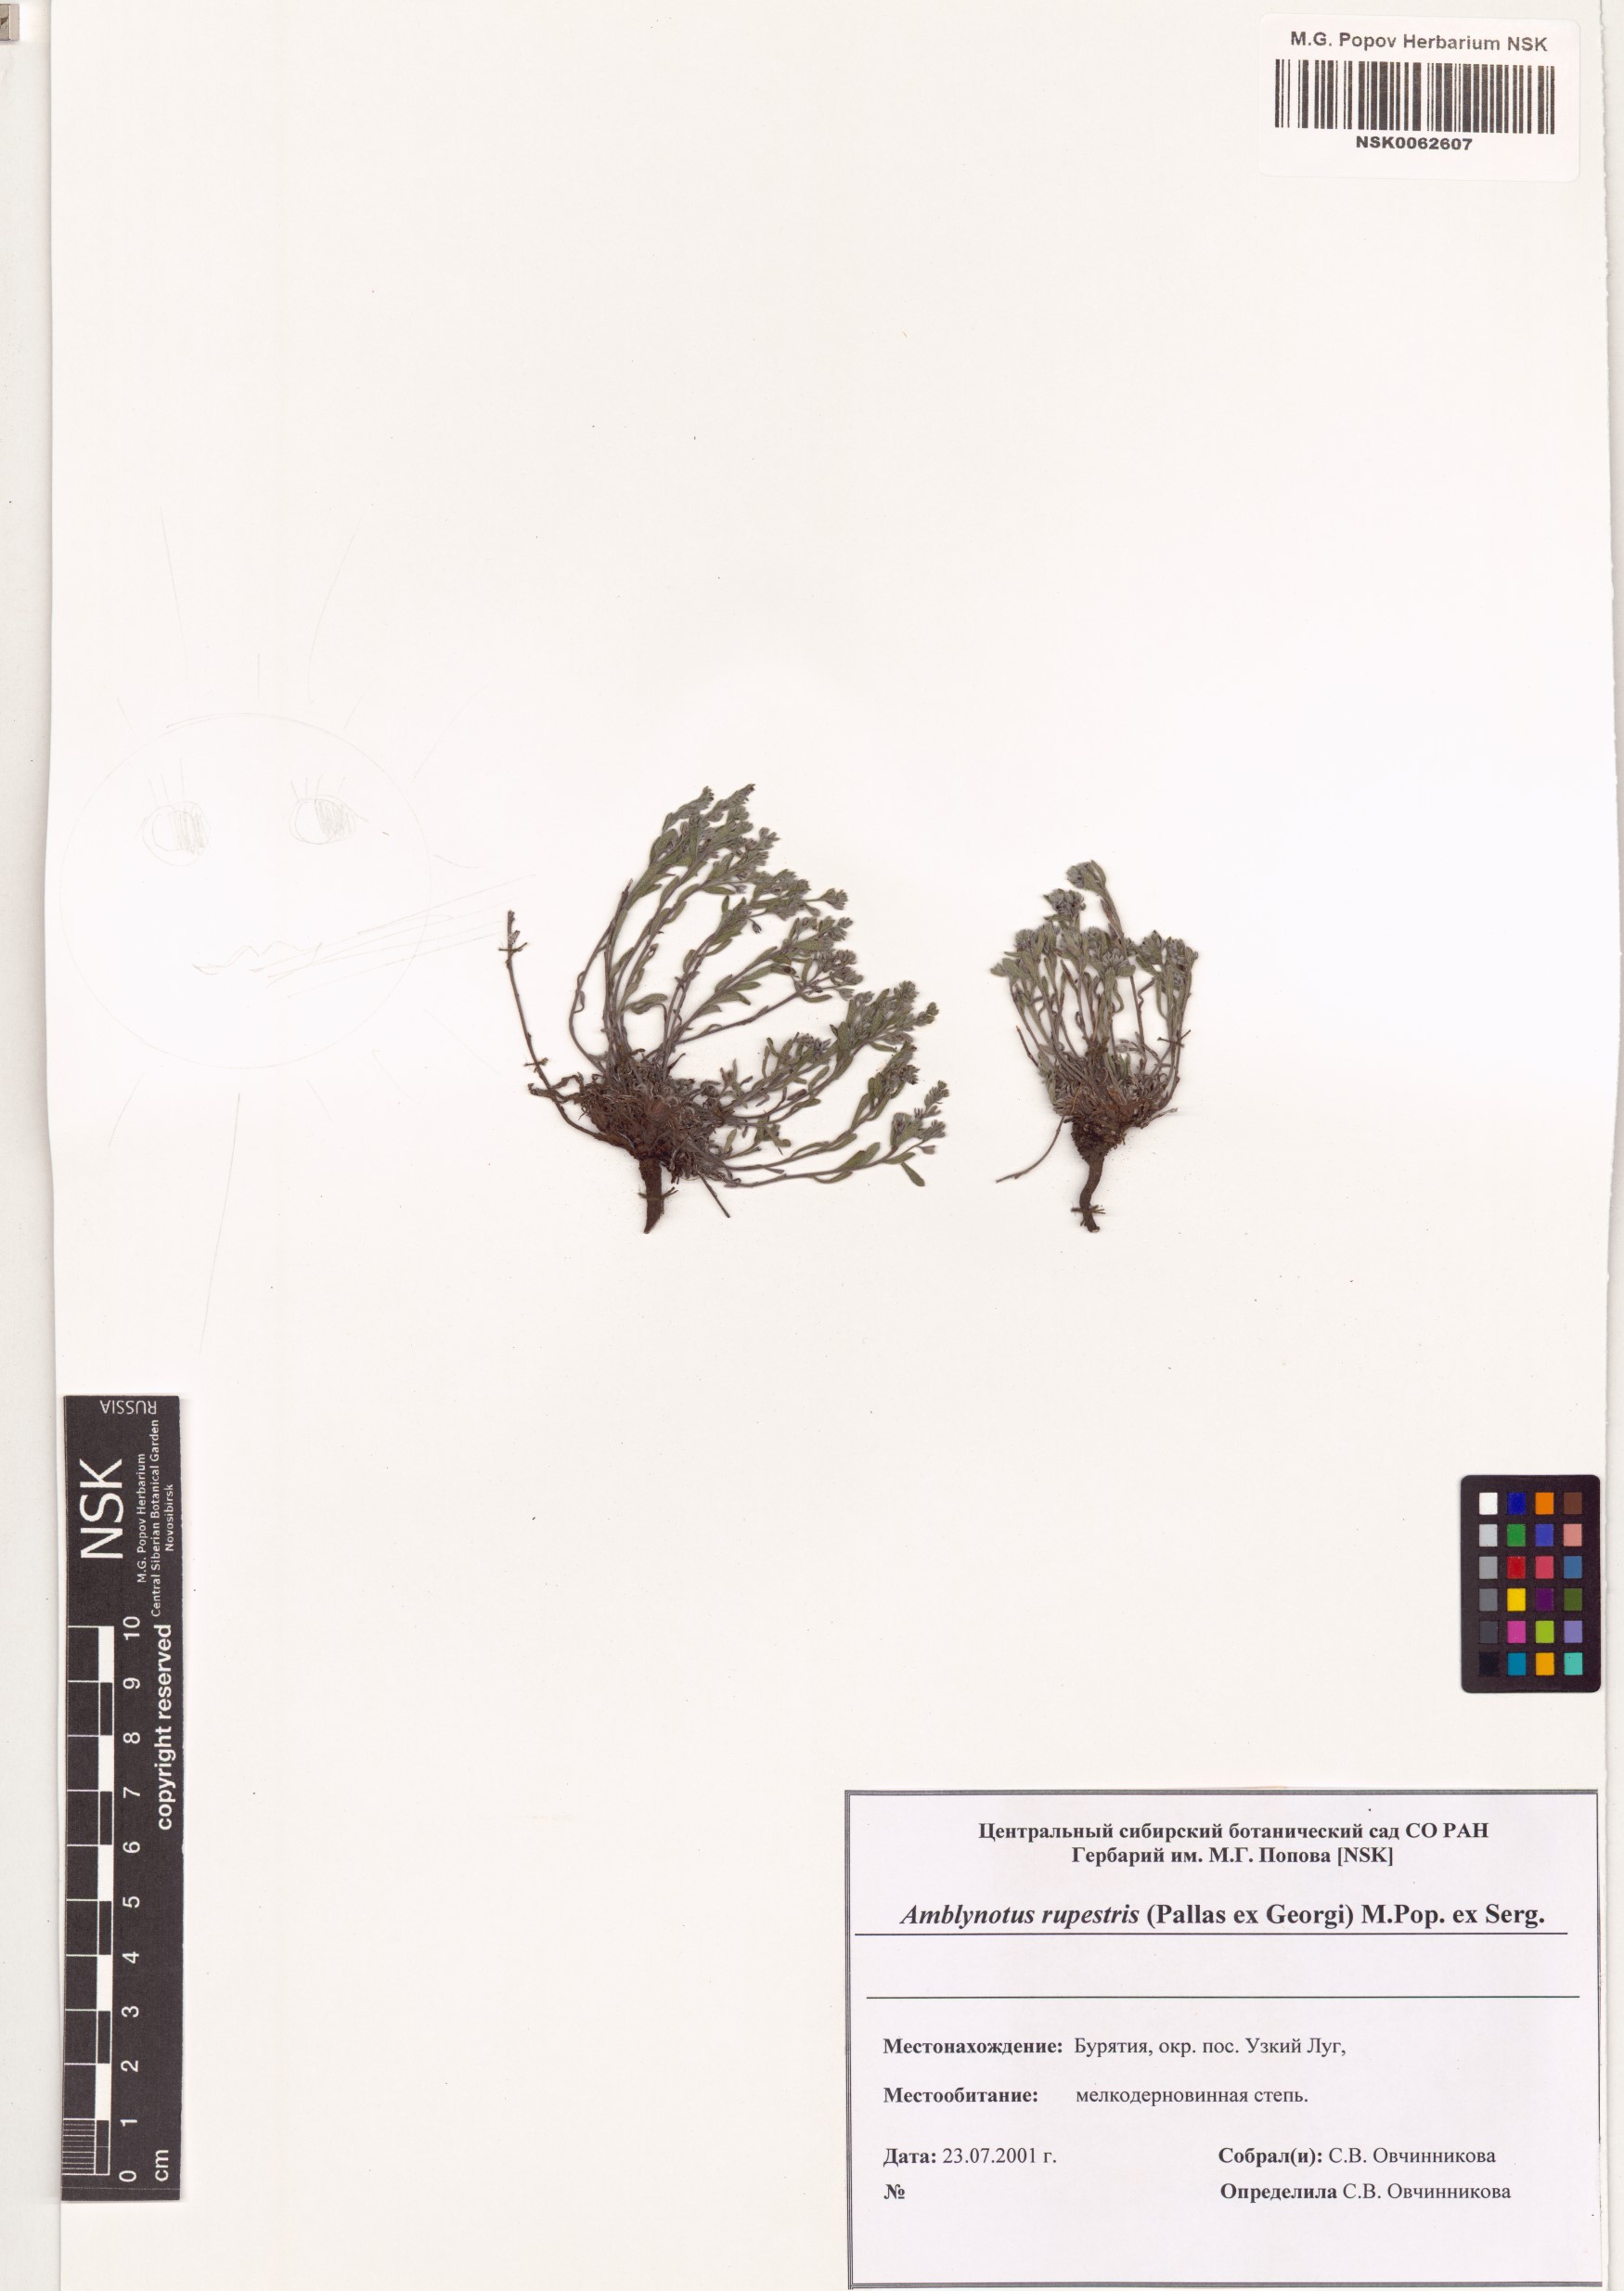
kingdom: Plantae
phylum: Tracheophyta
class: Magnoliopsida
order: Boraginales
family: Boraginaceae
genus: Eritrichium
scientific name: Eritrichium rupestre
